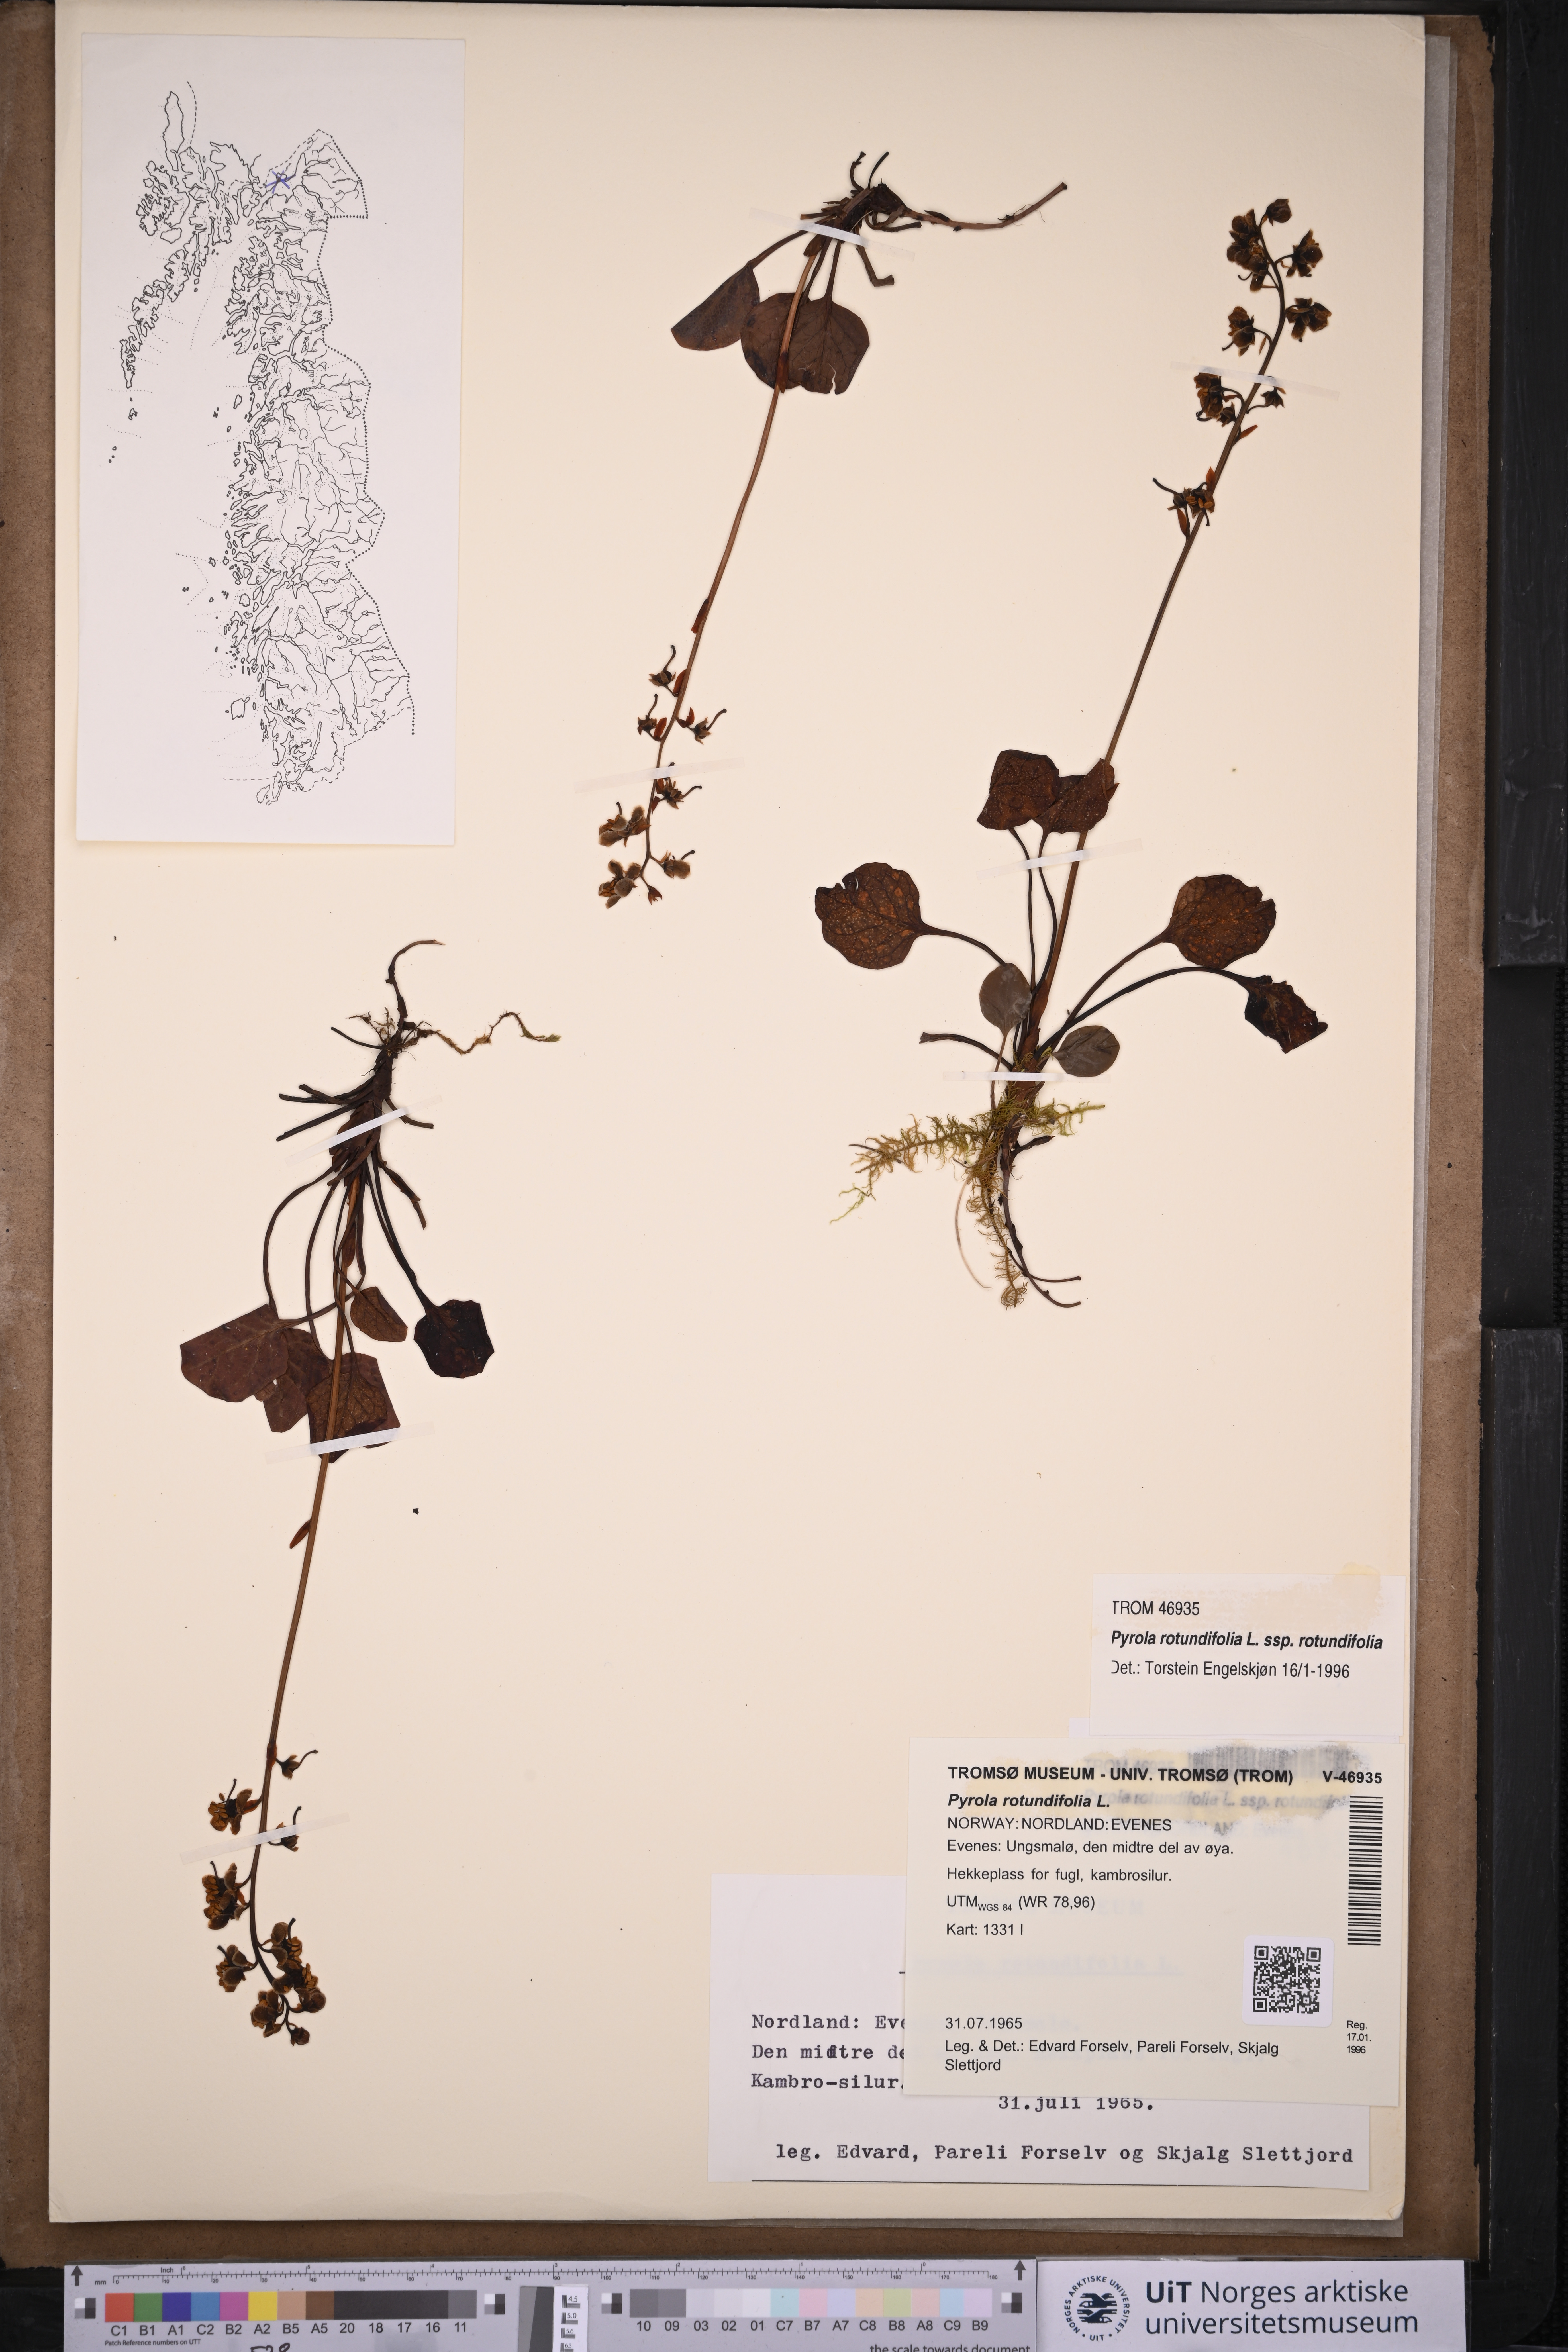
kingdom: Plantae
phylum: Tracheophyta
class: Magnoliopsida
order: Ericales
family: Ericaceae
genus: Pyrola
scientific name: Pyrola rotundifolia
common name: Round-leaved wintergreen
